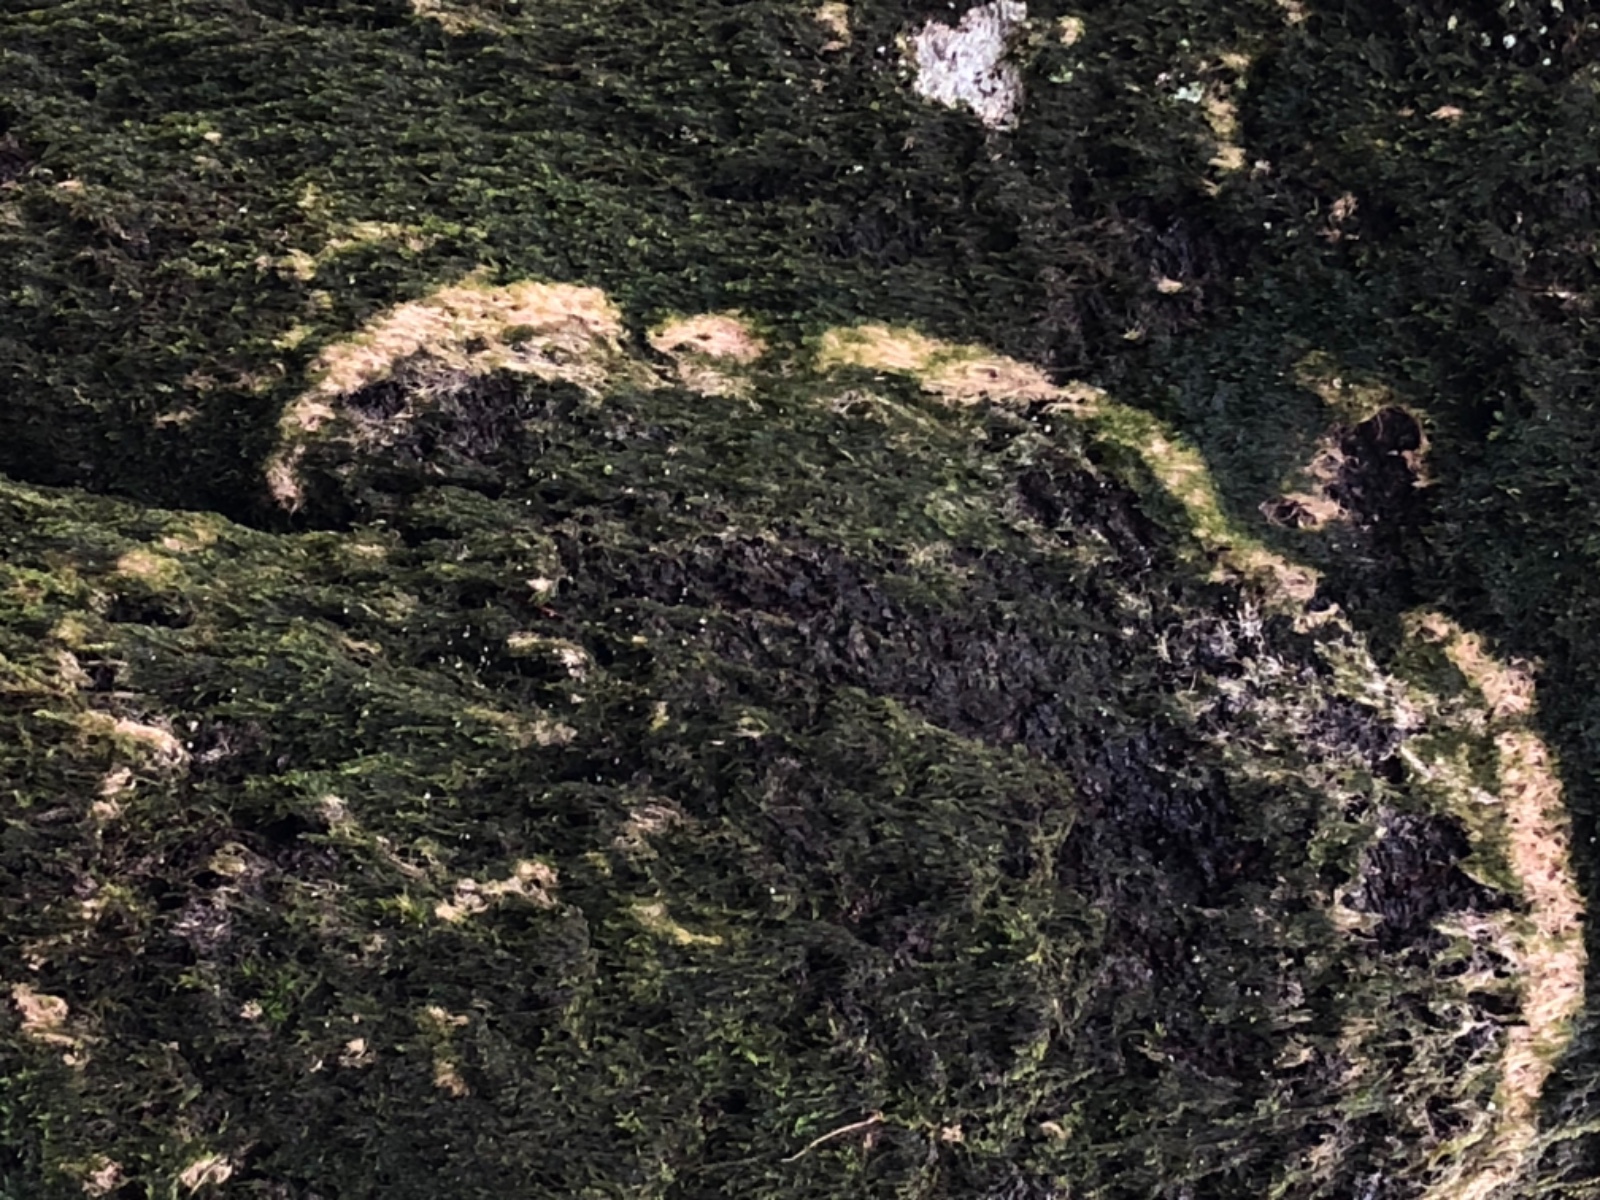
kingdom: Fungi
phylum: Basidiomycota
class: Agaricomycetes
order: Agaricales
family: Chromocyphellaceae
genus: Chromocyphella
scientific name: Chromocyphella muscicola
